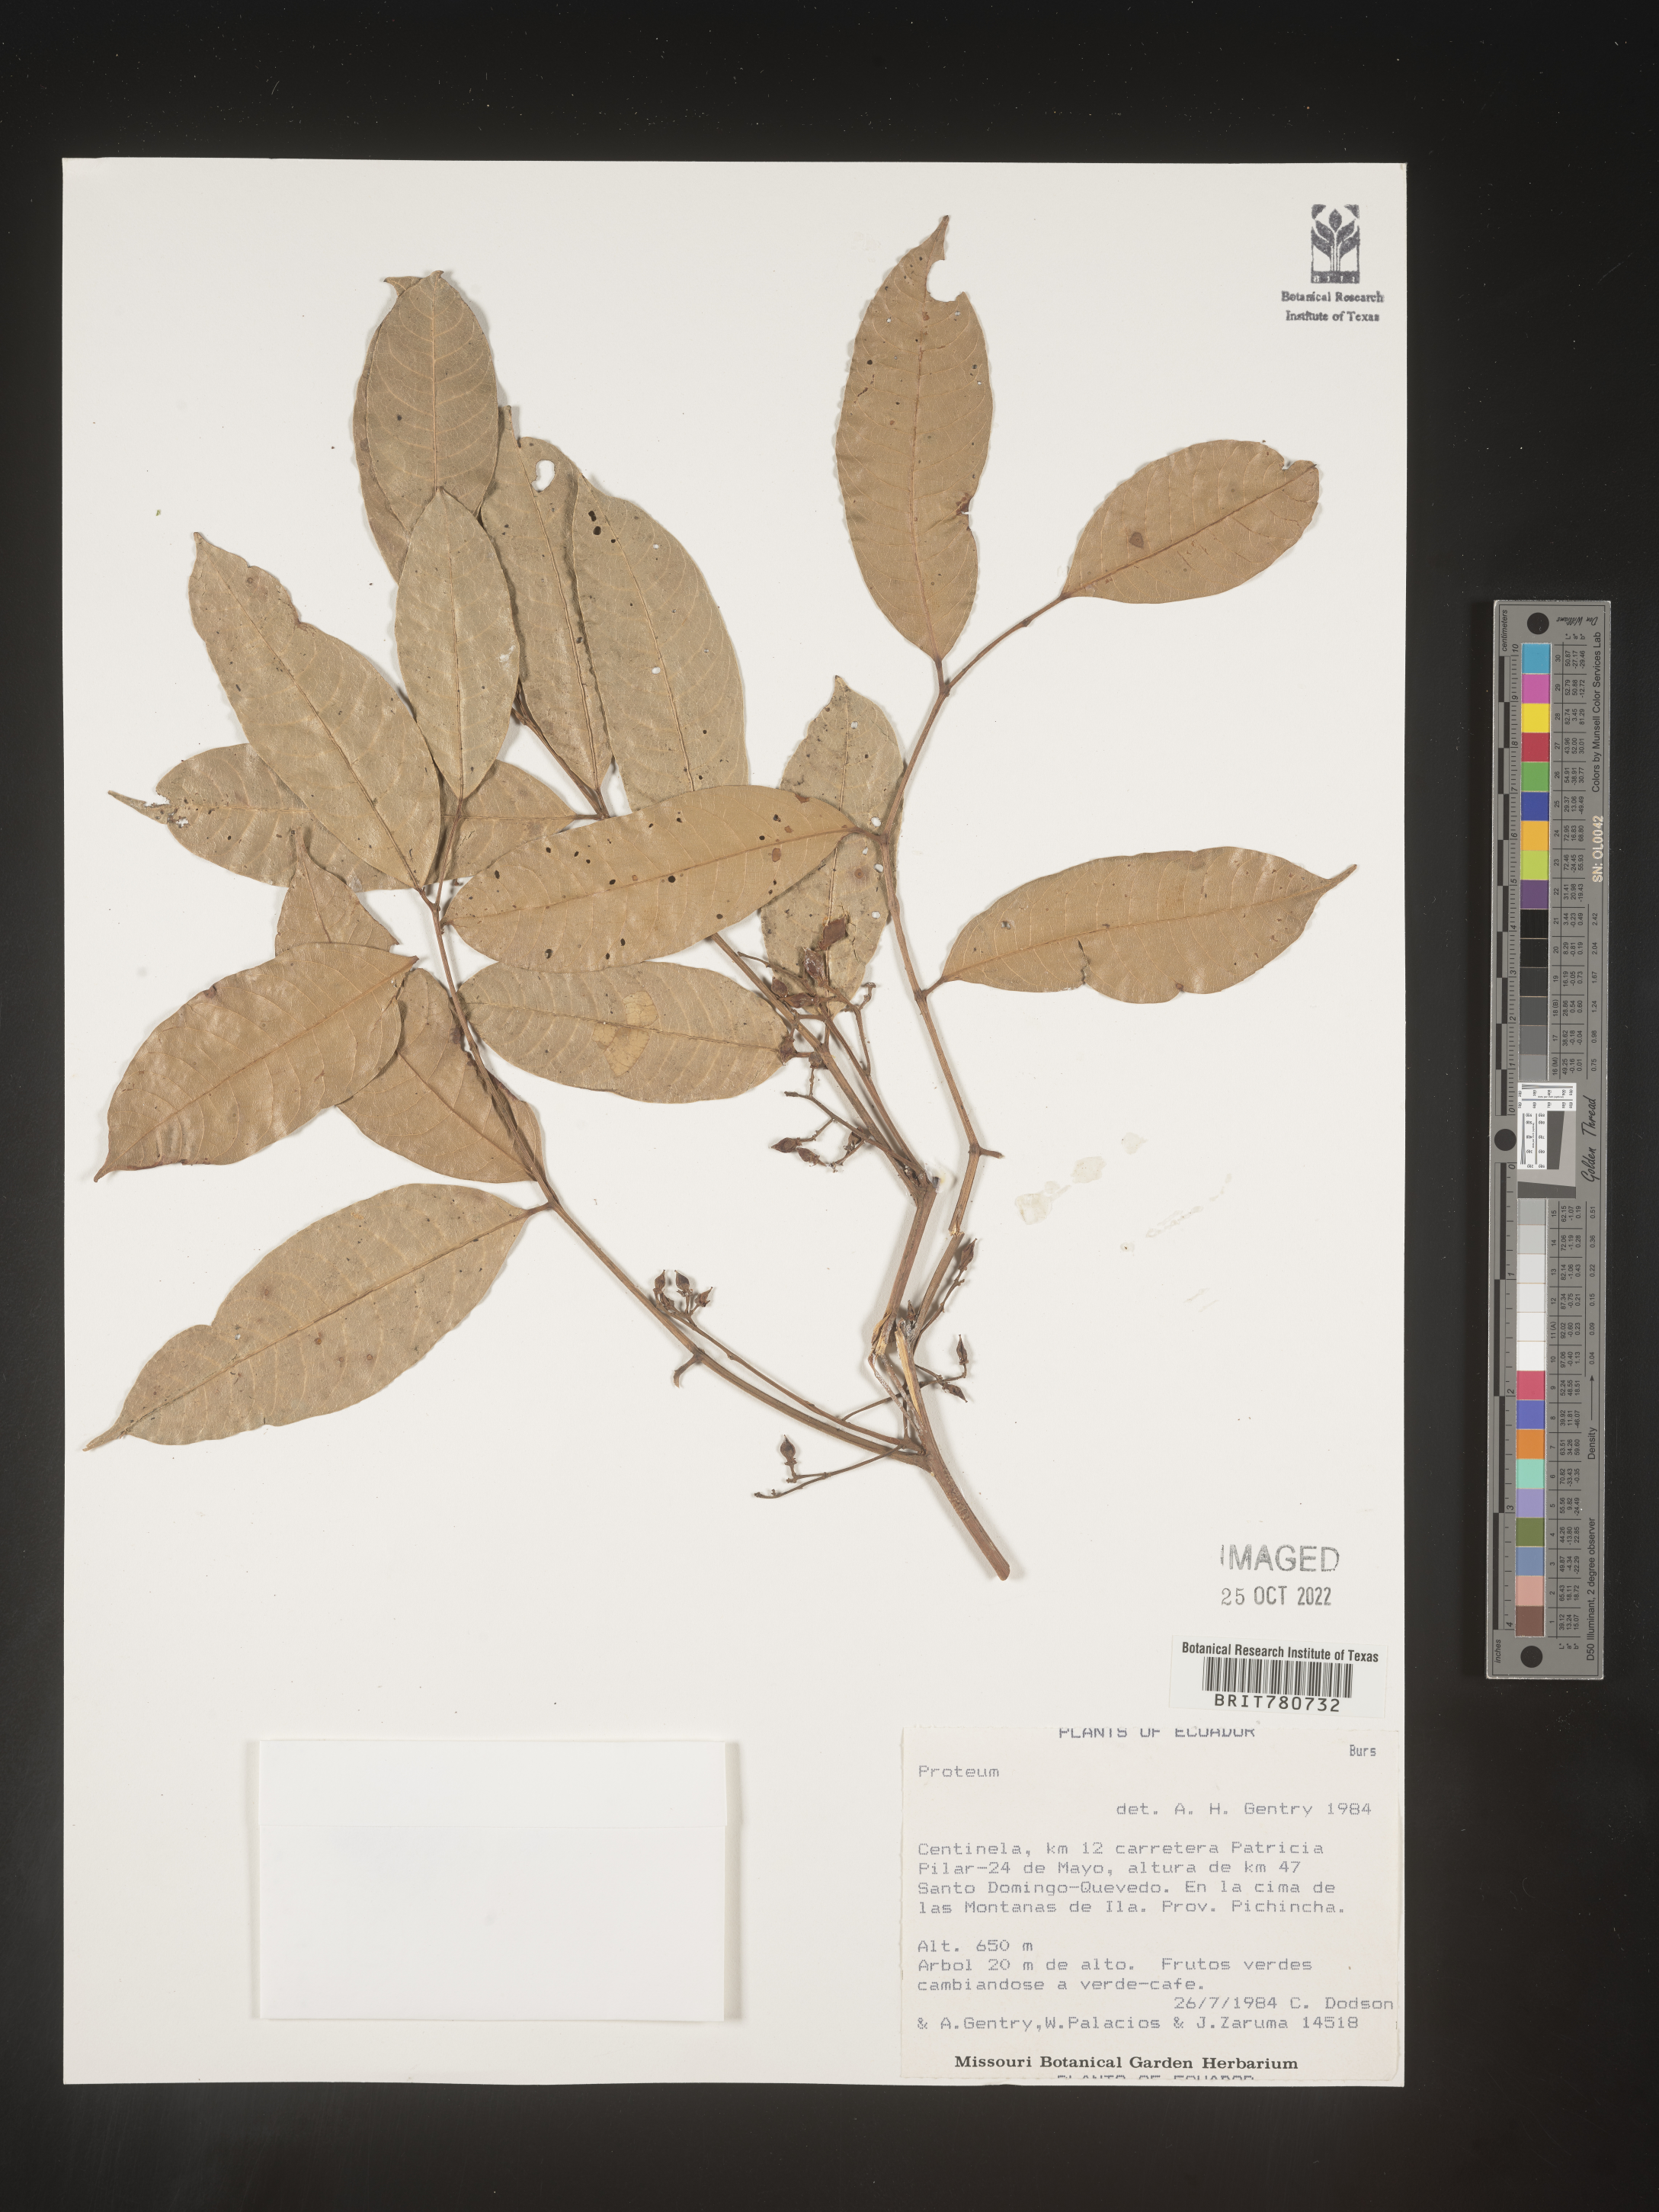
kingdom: Plantae
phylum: Tracheophyta
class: Magnoliopsida
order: Sapindales
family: Burseraceae
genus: Protium
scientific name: Protium
